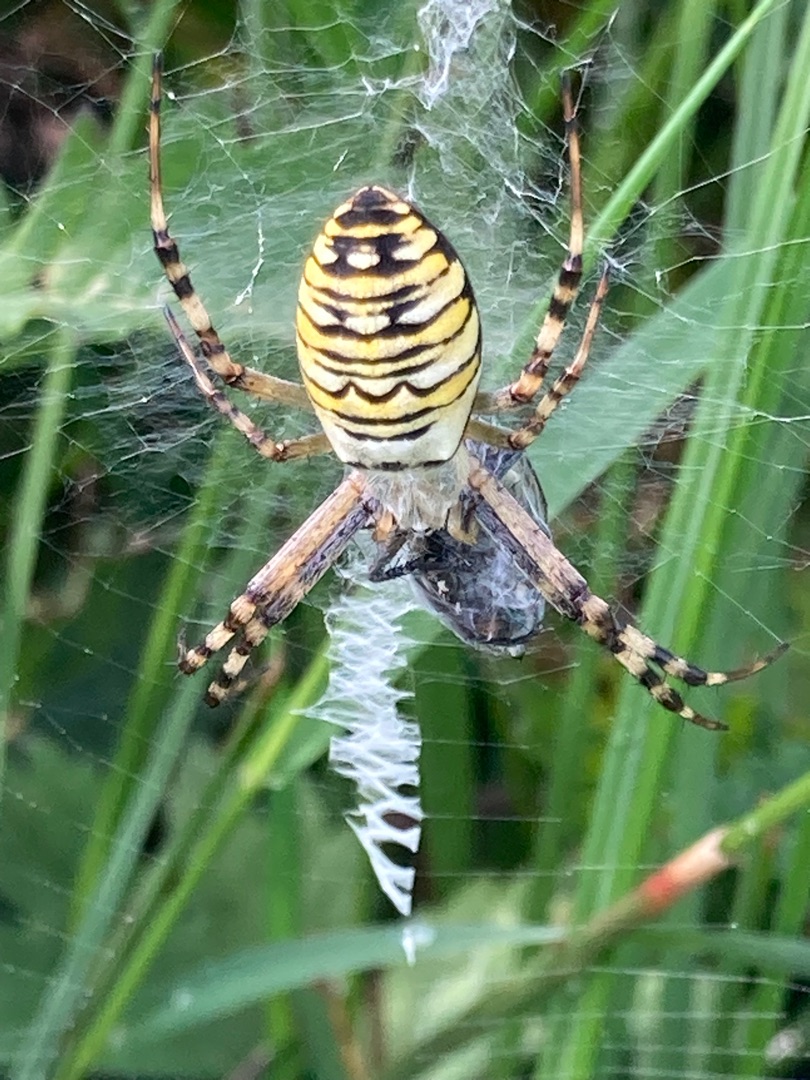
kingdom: Animalia
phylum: Arthropoda
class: Arachnida
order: Araneae
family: Araneidae
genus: Argiope
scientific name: Argiope bruennichi
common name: Hvepseedderkop
